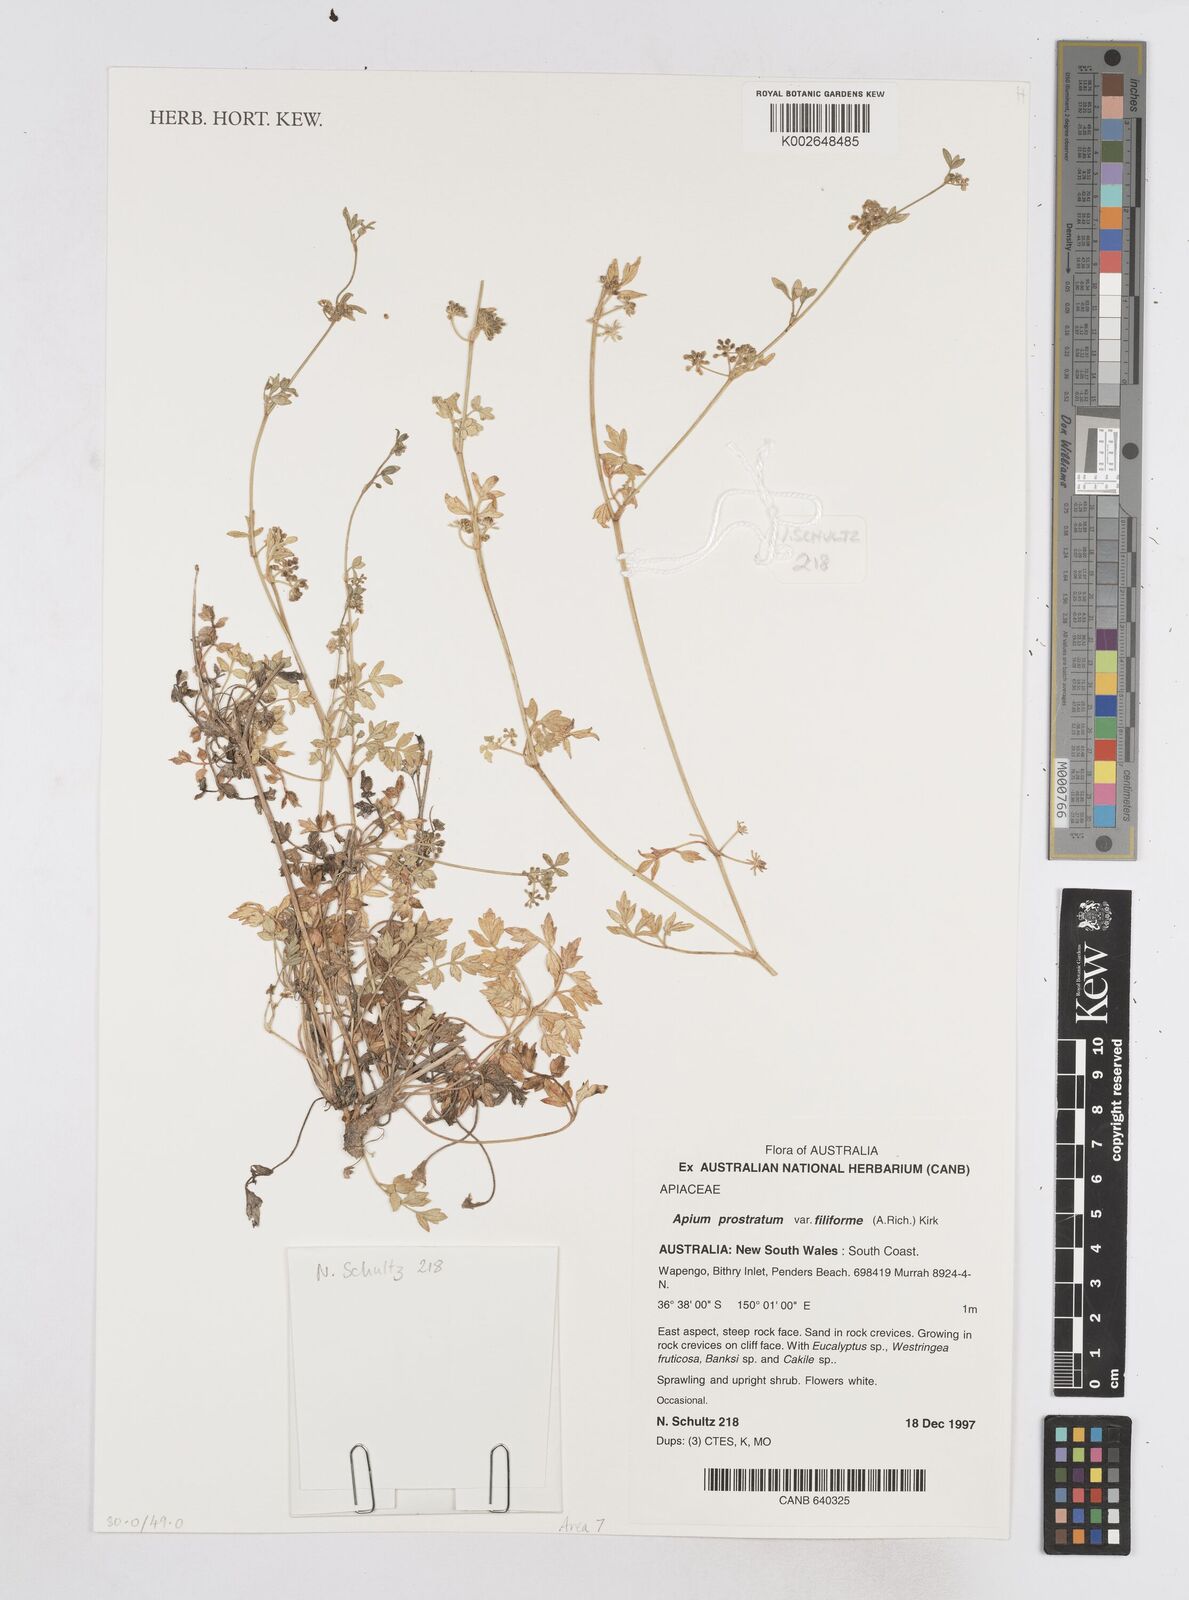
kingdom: Plantae
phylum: Tracheophyta
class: Magnoliopsida
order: Apiales
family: Apiaceae
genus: Apium
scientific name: Apium prostratum
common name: Prostrate marshwort
